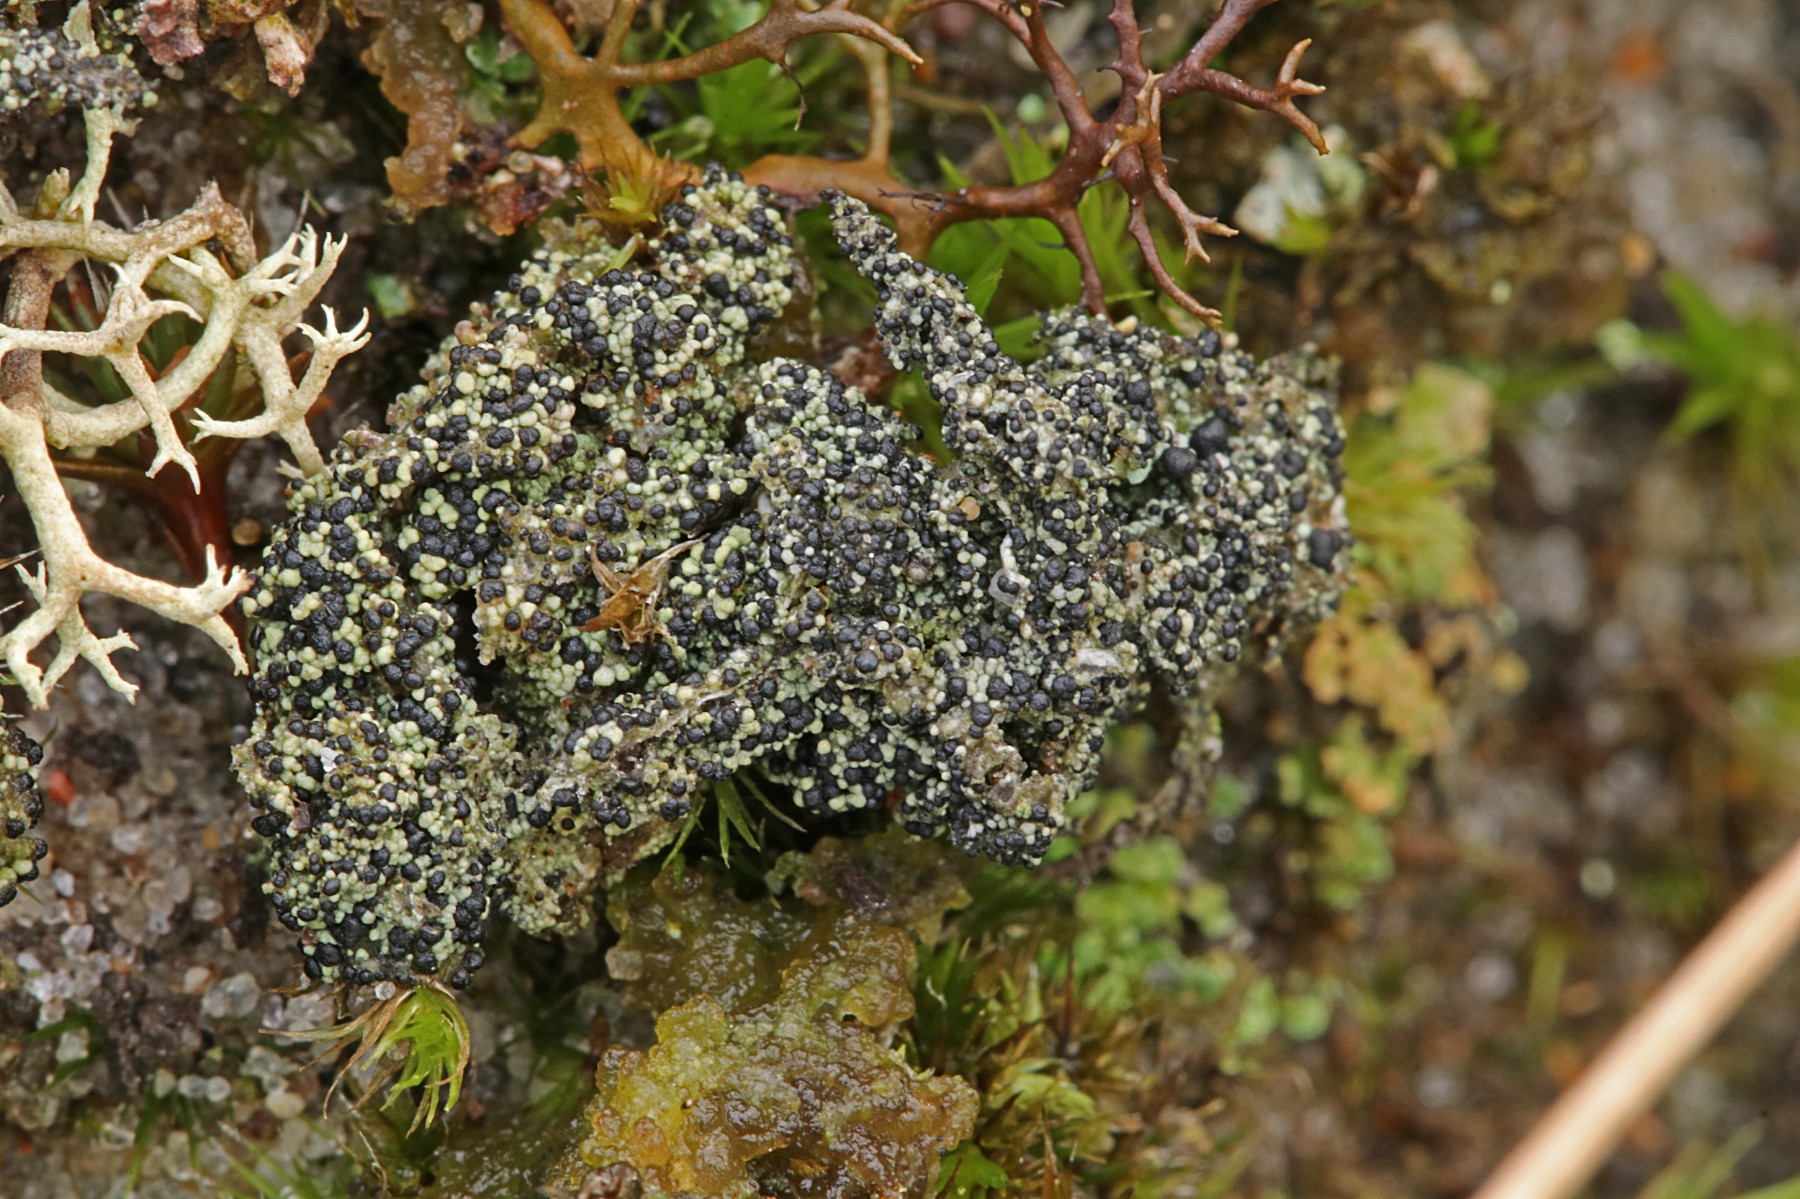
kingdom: Fungi
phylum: Ascomycota
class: Lecanoromycetes
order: Lecanorales
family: Byssolomataceae
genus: Micarea
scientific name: Micarea lignaria
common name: tørve-knaplav
